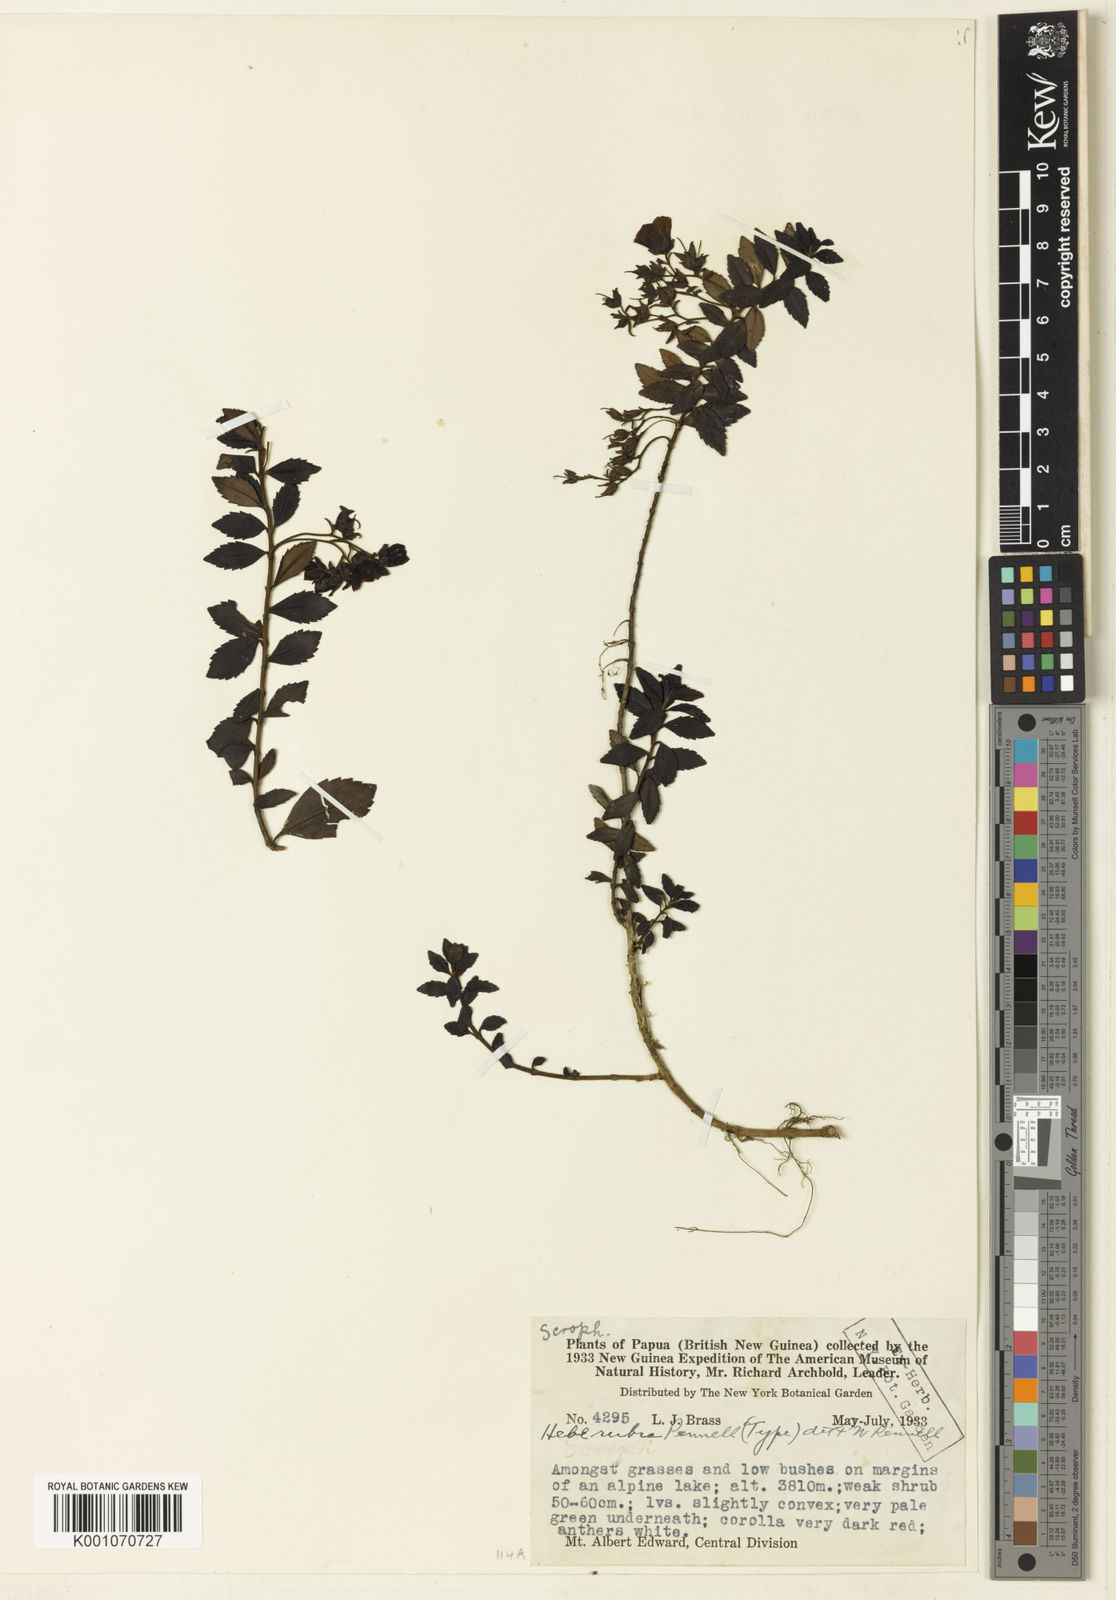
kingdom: Plantae
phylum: Tracheophyta
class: Magnoliopsida
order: Lamiales
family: Plantaginaceae
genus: Veronica
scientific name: Veronica carminea
